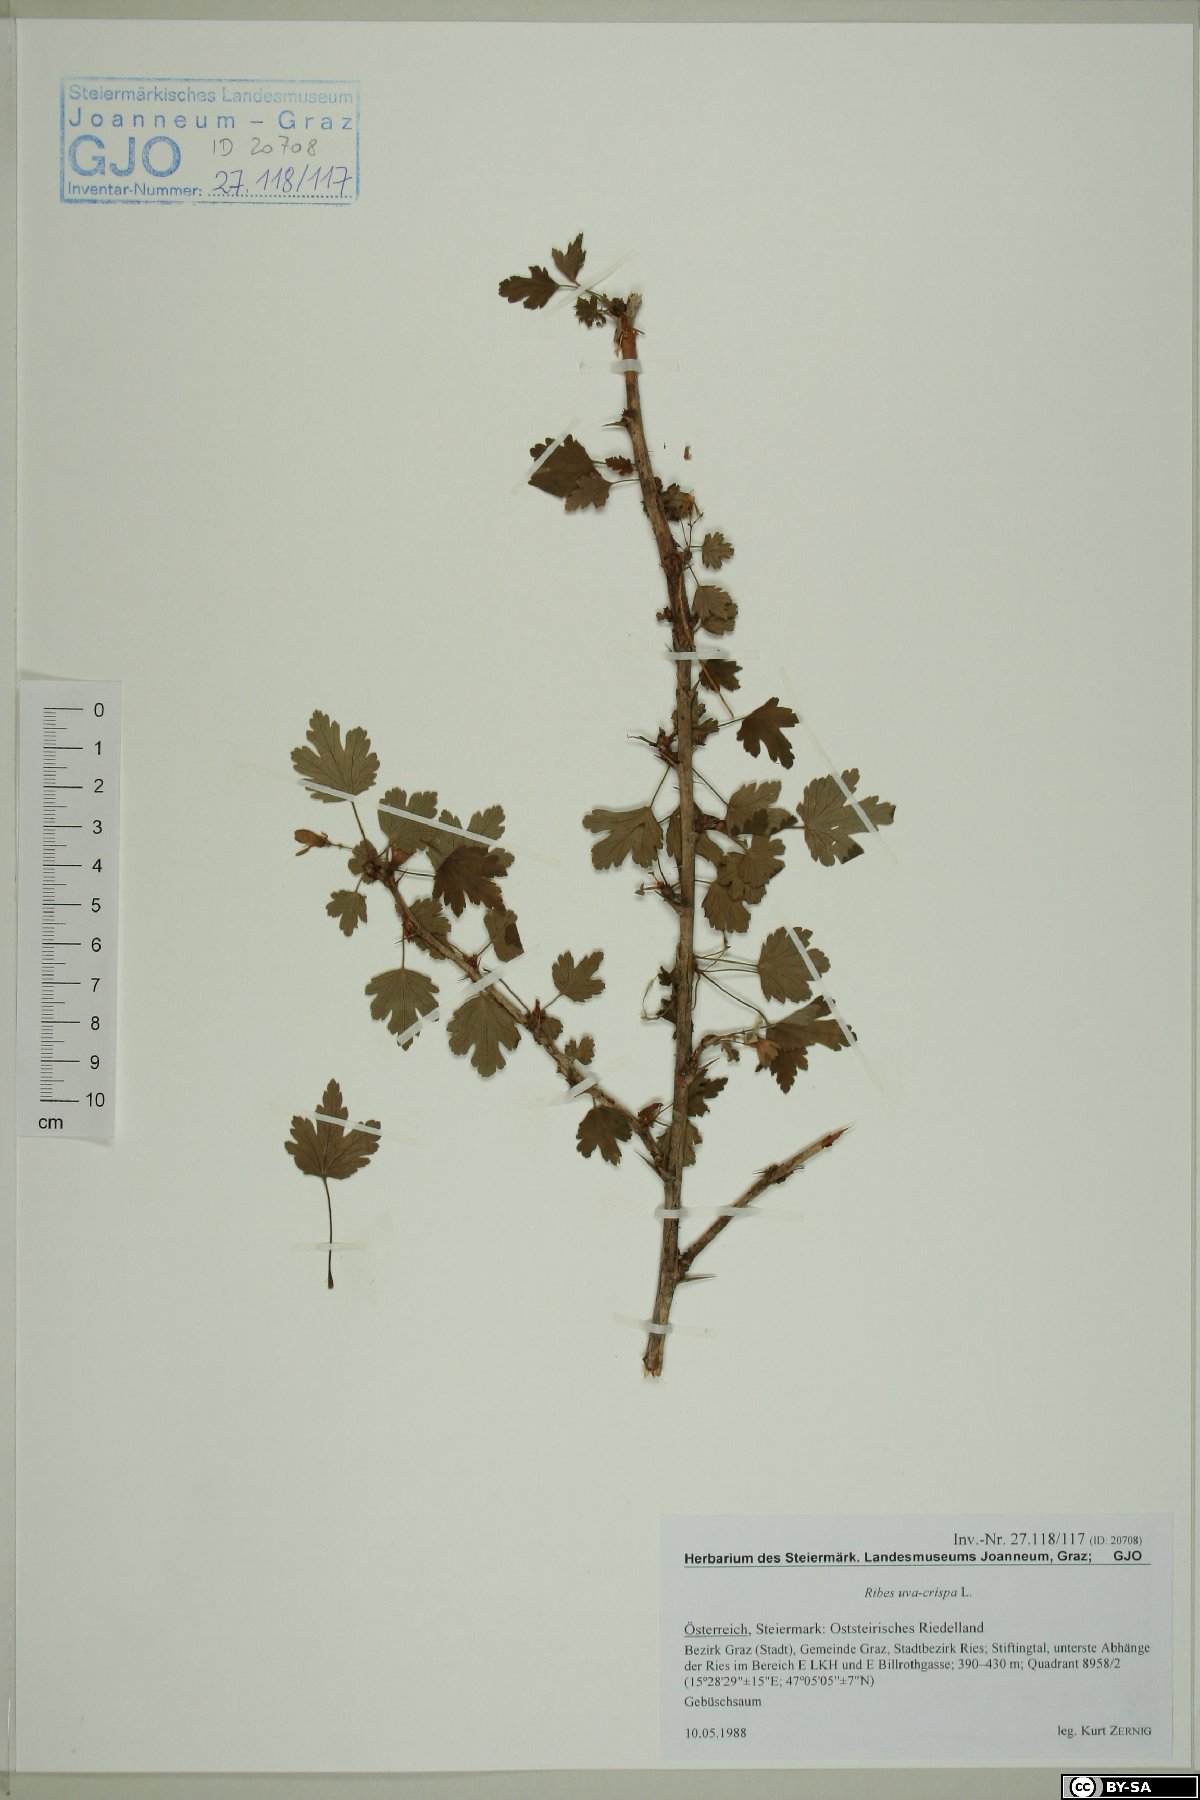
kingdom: Plantae
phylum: Tracheophyta
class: Magnoliopsida
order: Saxifragales
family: Grossulariaceae
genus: Ribes
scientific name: Ribes uva-crispa
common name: Gooseberry
